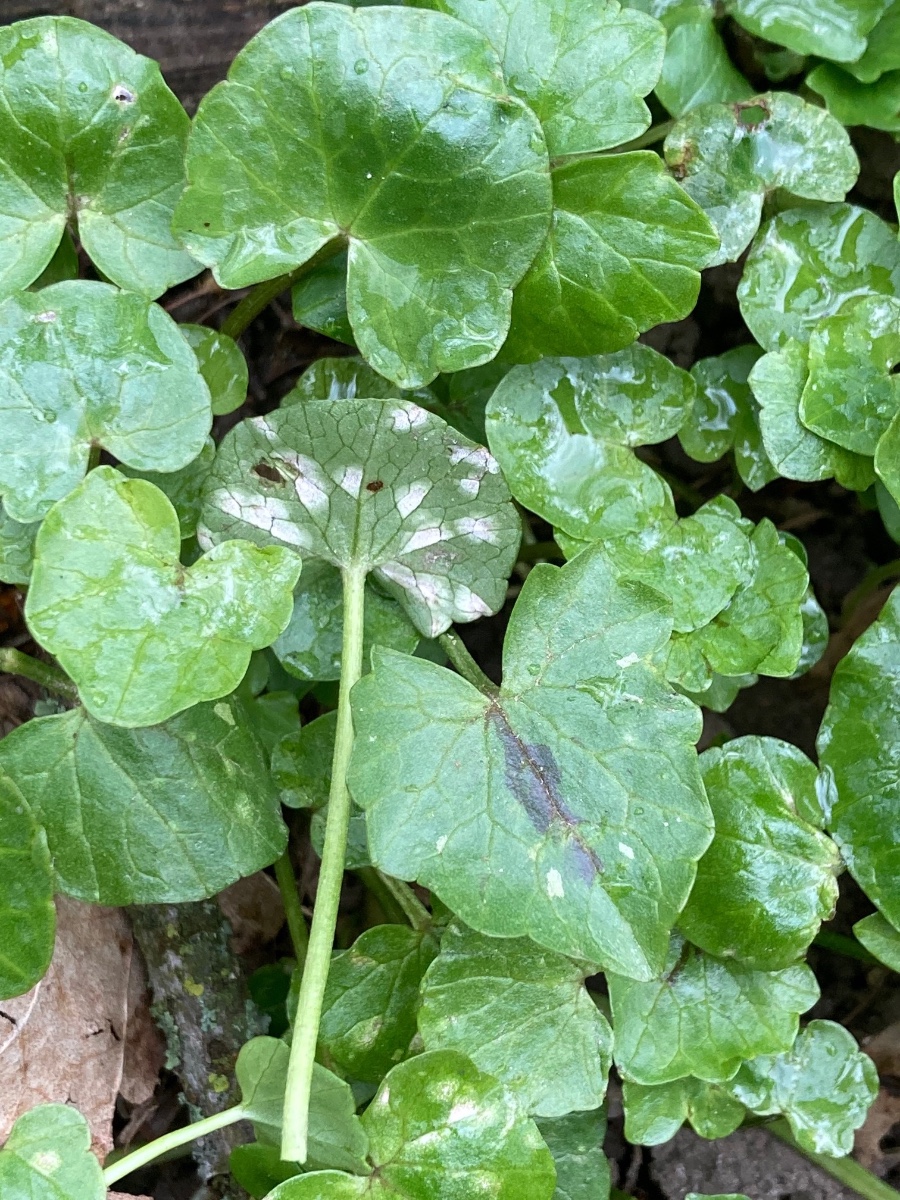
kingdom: Fungi
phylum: Basidiomycota
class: Exobasidiomycetes
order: Entylomatales
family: Entylomataceae
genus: Entyloma
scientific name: Entyloma ficariae
